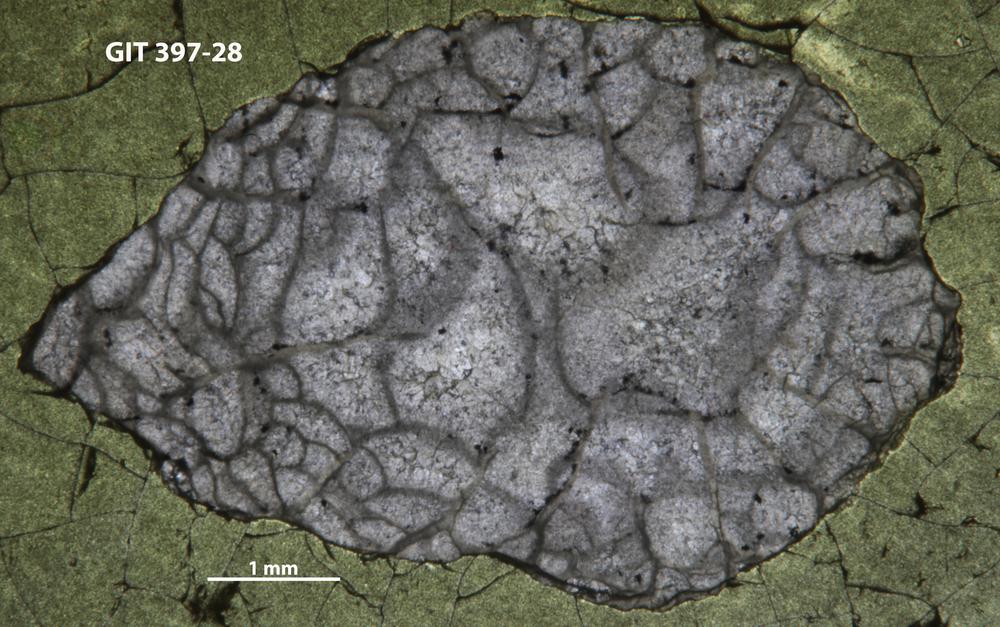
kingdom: Animalia
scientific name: Animalia
